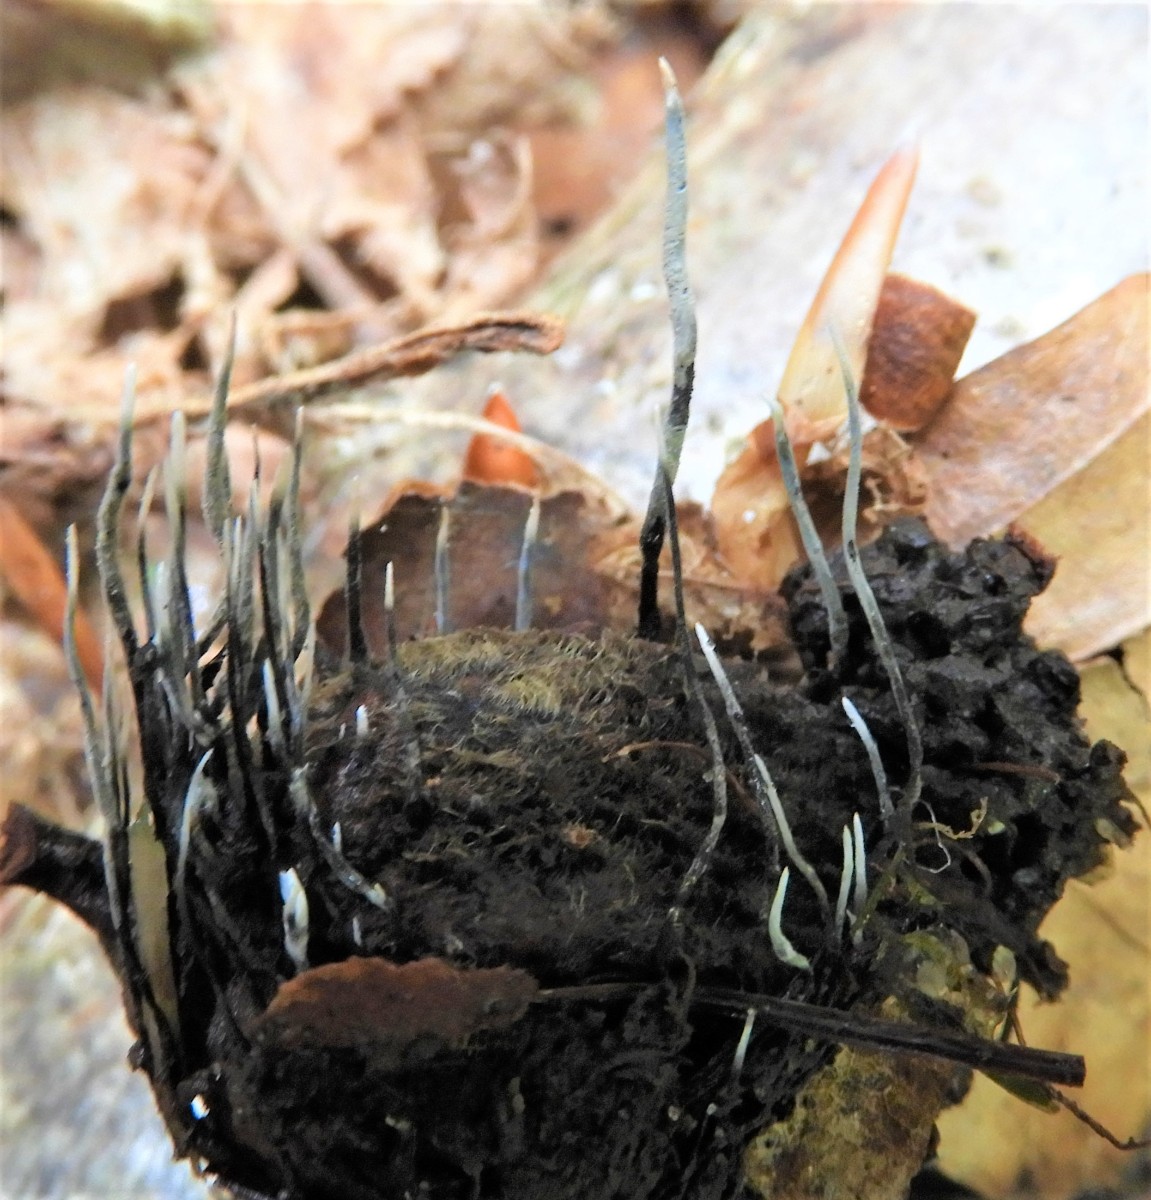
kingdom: Fungi
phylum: Ascomycota
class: Sordariomycetes
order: Xylariales
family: Xylariaceae
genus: Xylaria
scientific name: Xylaria carpophila
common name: bogskål-stødsvamp
